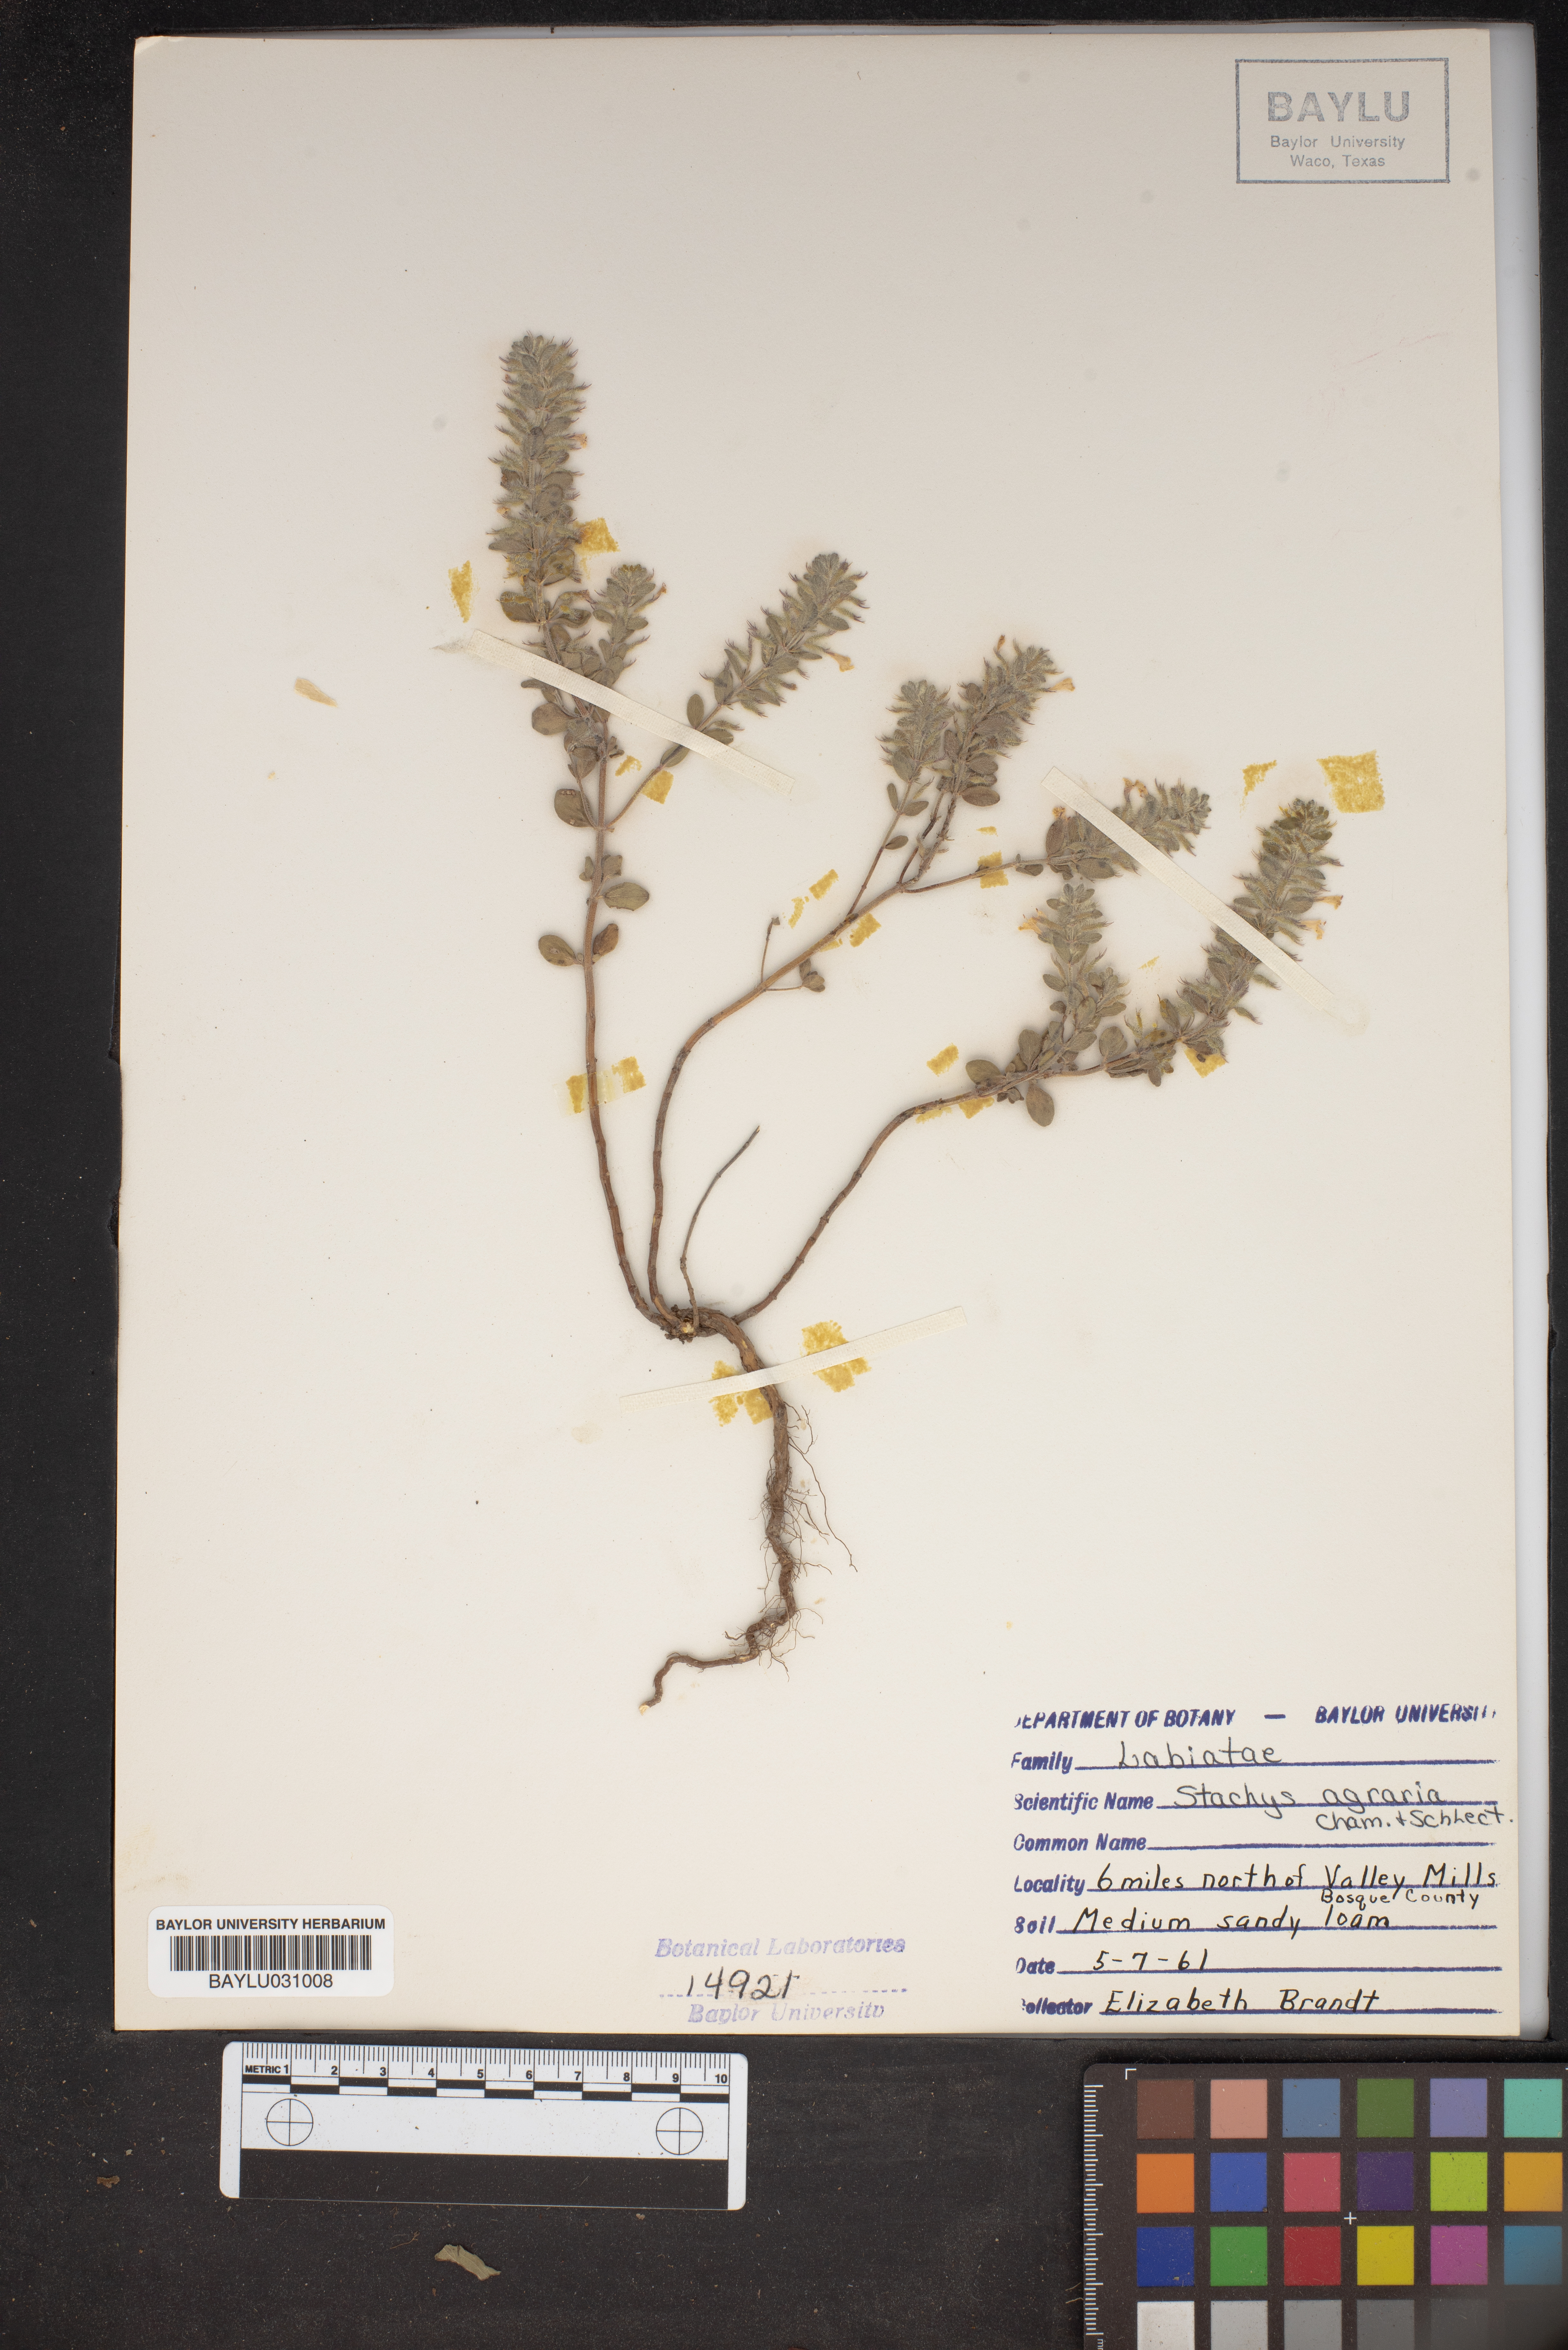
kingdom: Plantae
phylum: Tracheophyta
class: Magnoliopsida
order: Lamiales
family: Lamiaceae
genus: Stachys
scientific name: Stachys agraria
